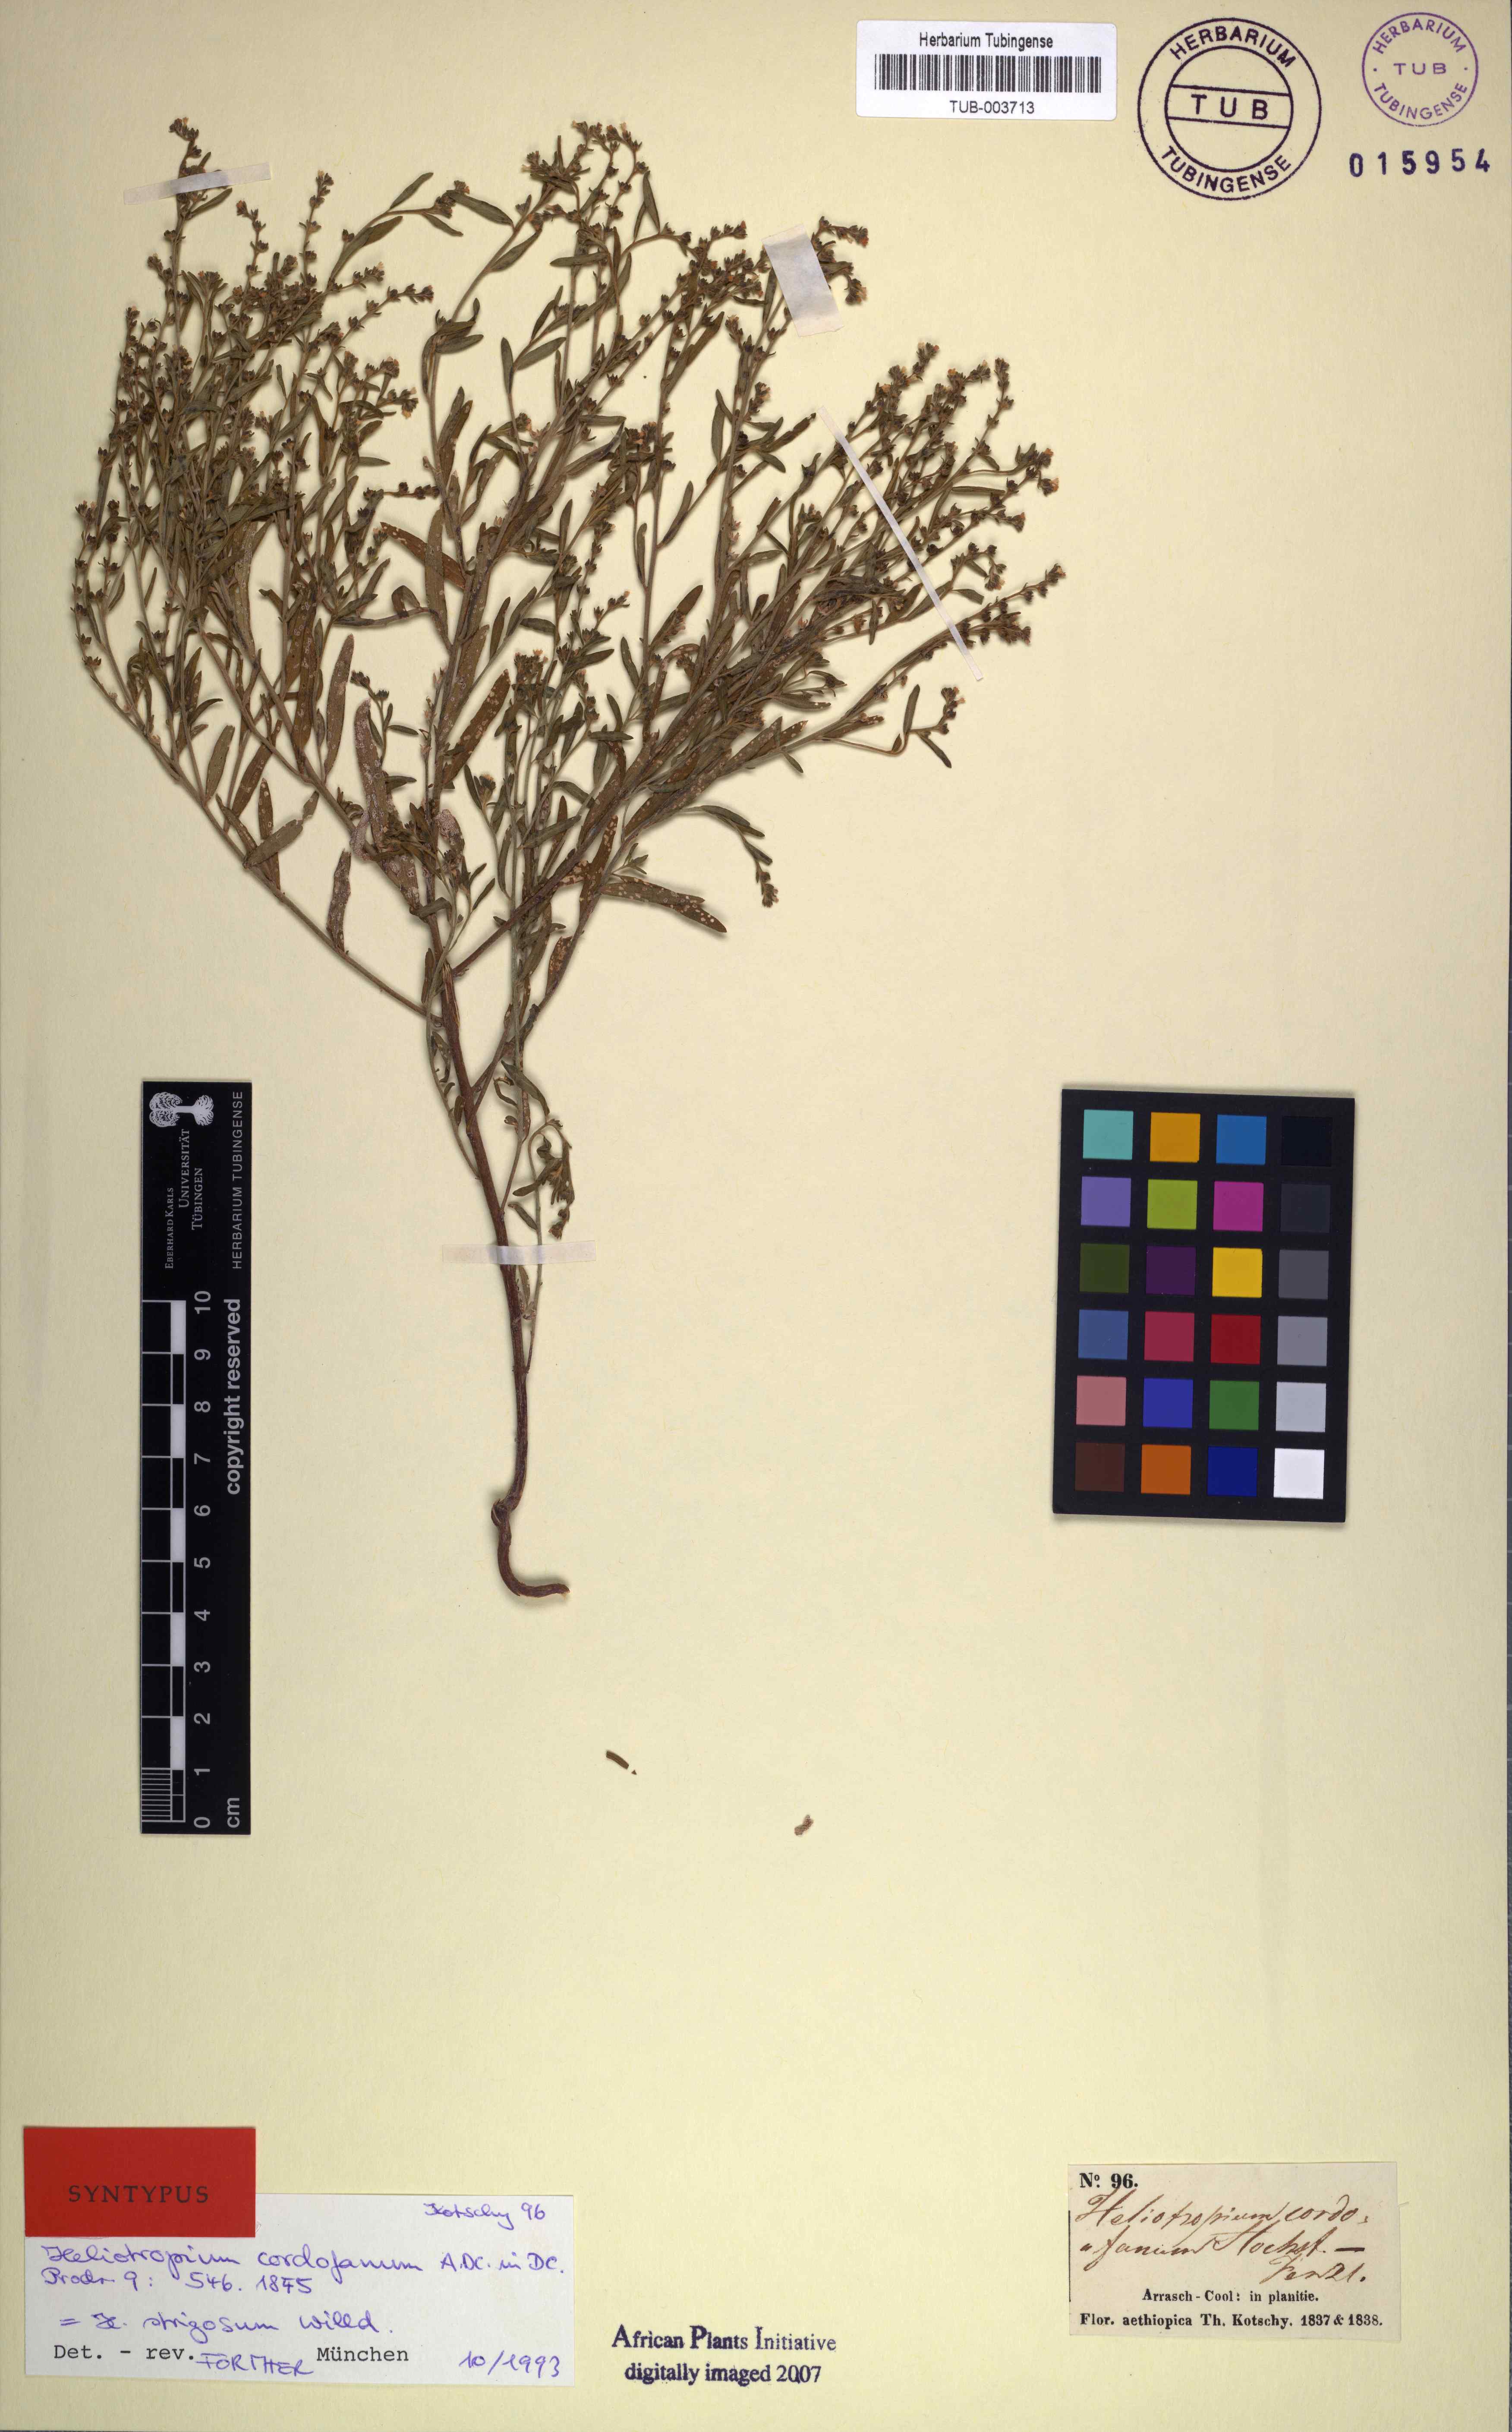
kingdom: Plantae
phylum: Tracheophyta
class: Magnoliopsida
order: Boraginales
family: Heliotropiaceae
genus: Euploca
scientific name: Euploca strigosa
